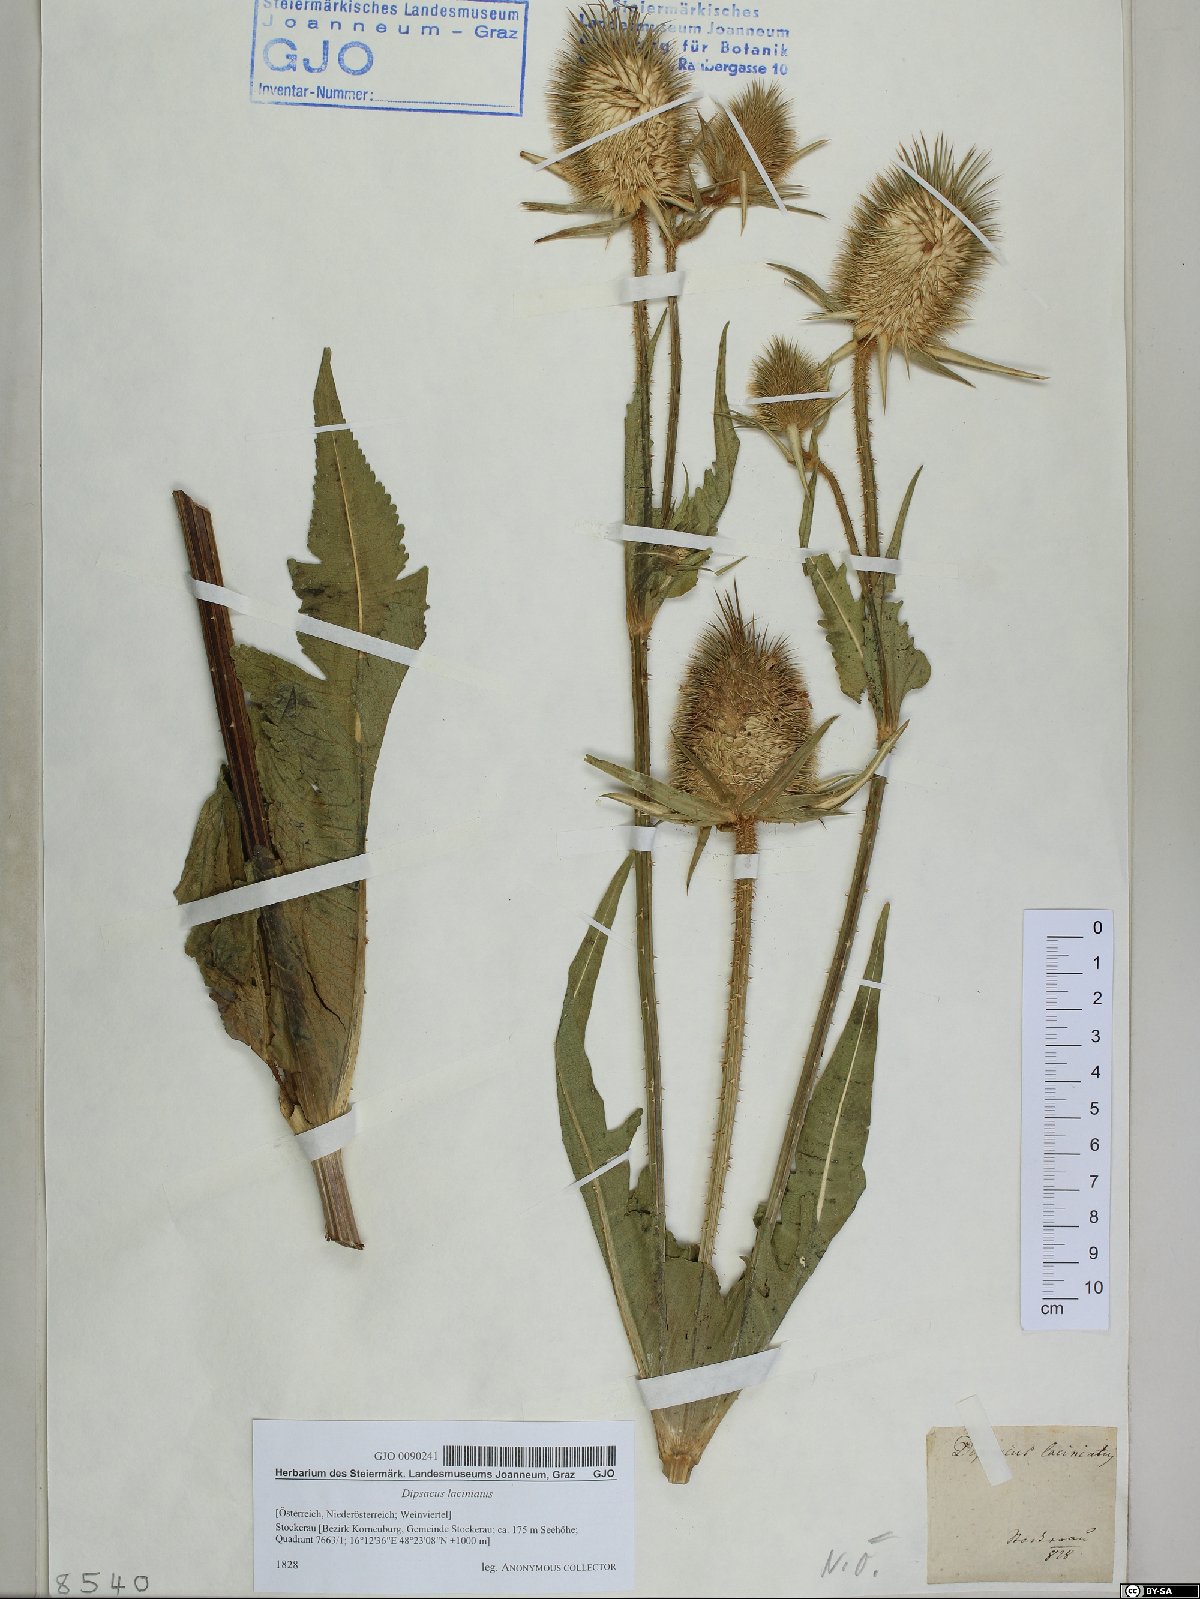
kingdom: Plantae
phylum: Tracheophyta
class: Magnoliopsida
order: Dipsacales
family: Caprifoliaceae
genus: Dipsacus
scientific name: Dipsacus laciniatus
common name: Cut-leaved teasel
